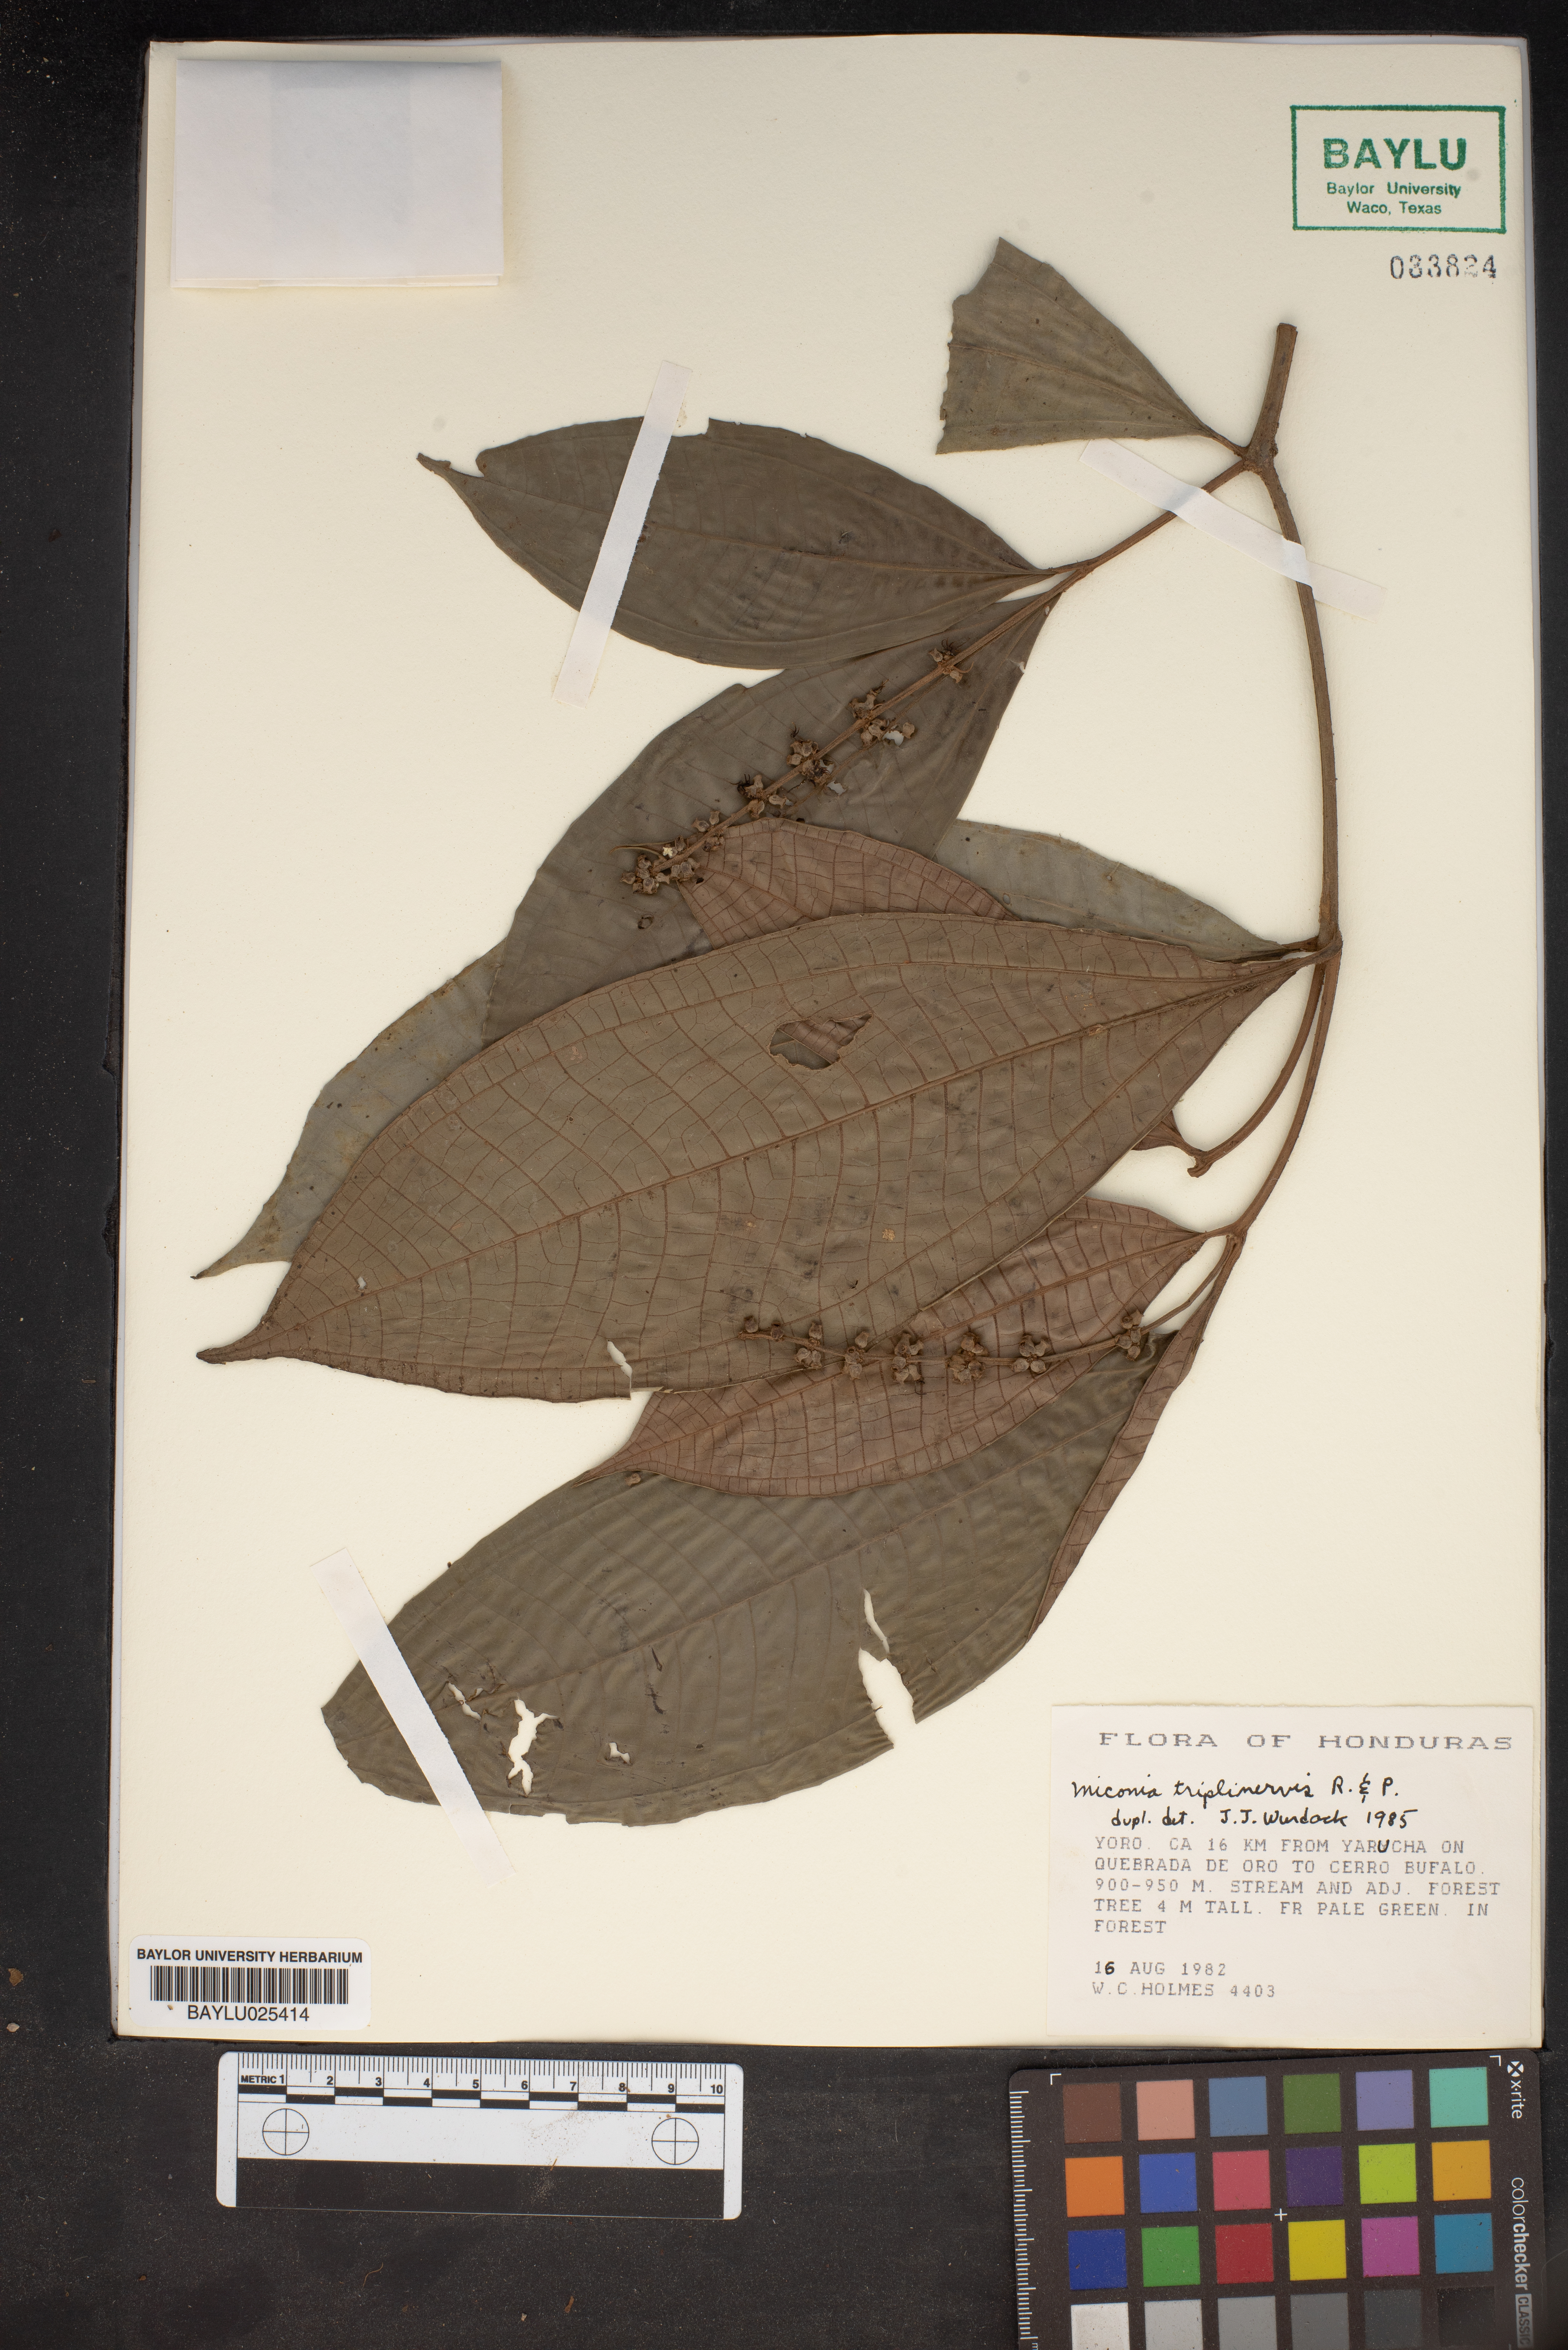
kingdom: Plantae
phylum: Tracheophyta
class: Magnoliopsida
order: Myrtales
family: Melastomataceae
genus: Miconia
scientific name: Miconia triplinervis
